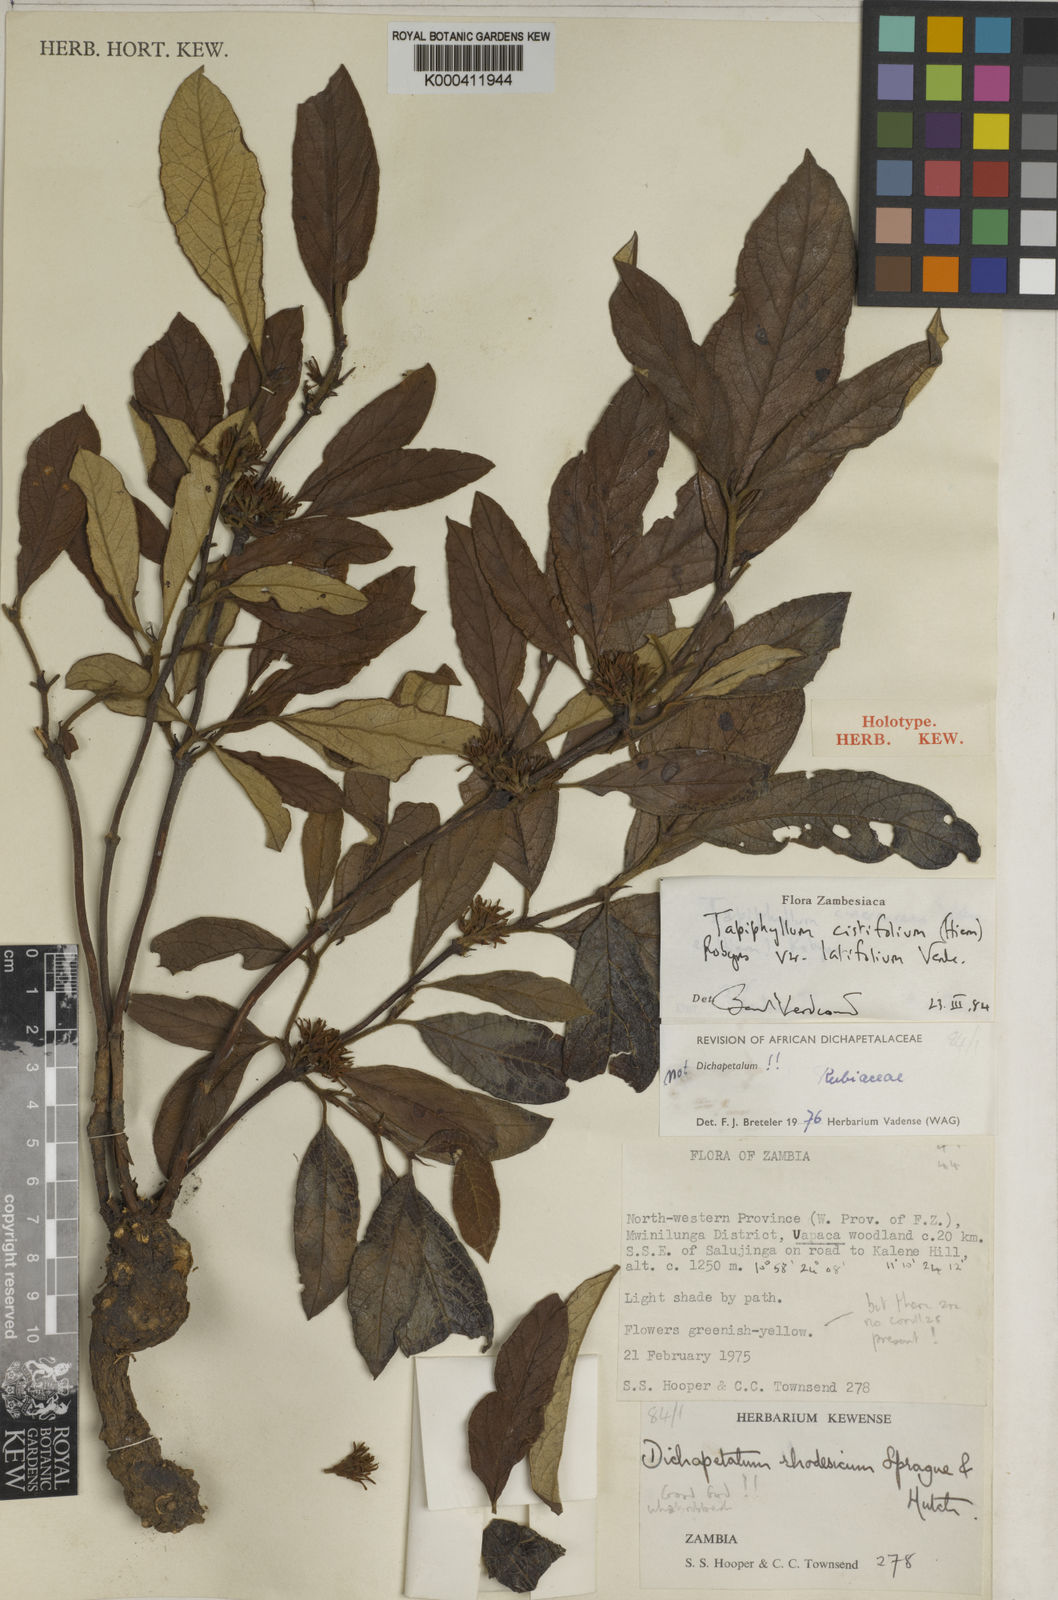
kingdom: Plantae
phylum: Tracheophyta
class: Magnoliopsida
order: Gentianales
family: Rubiaceae
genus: Vangueria
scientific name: Vangueria cistifolia
